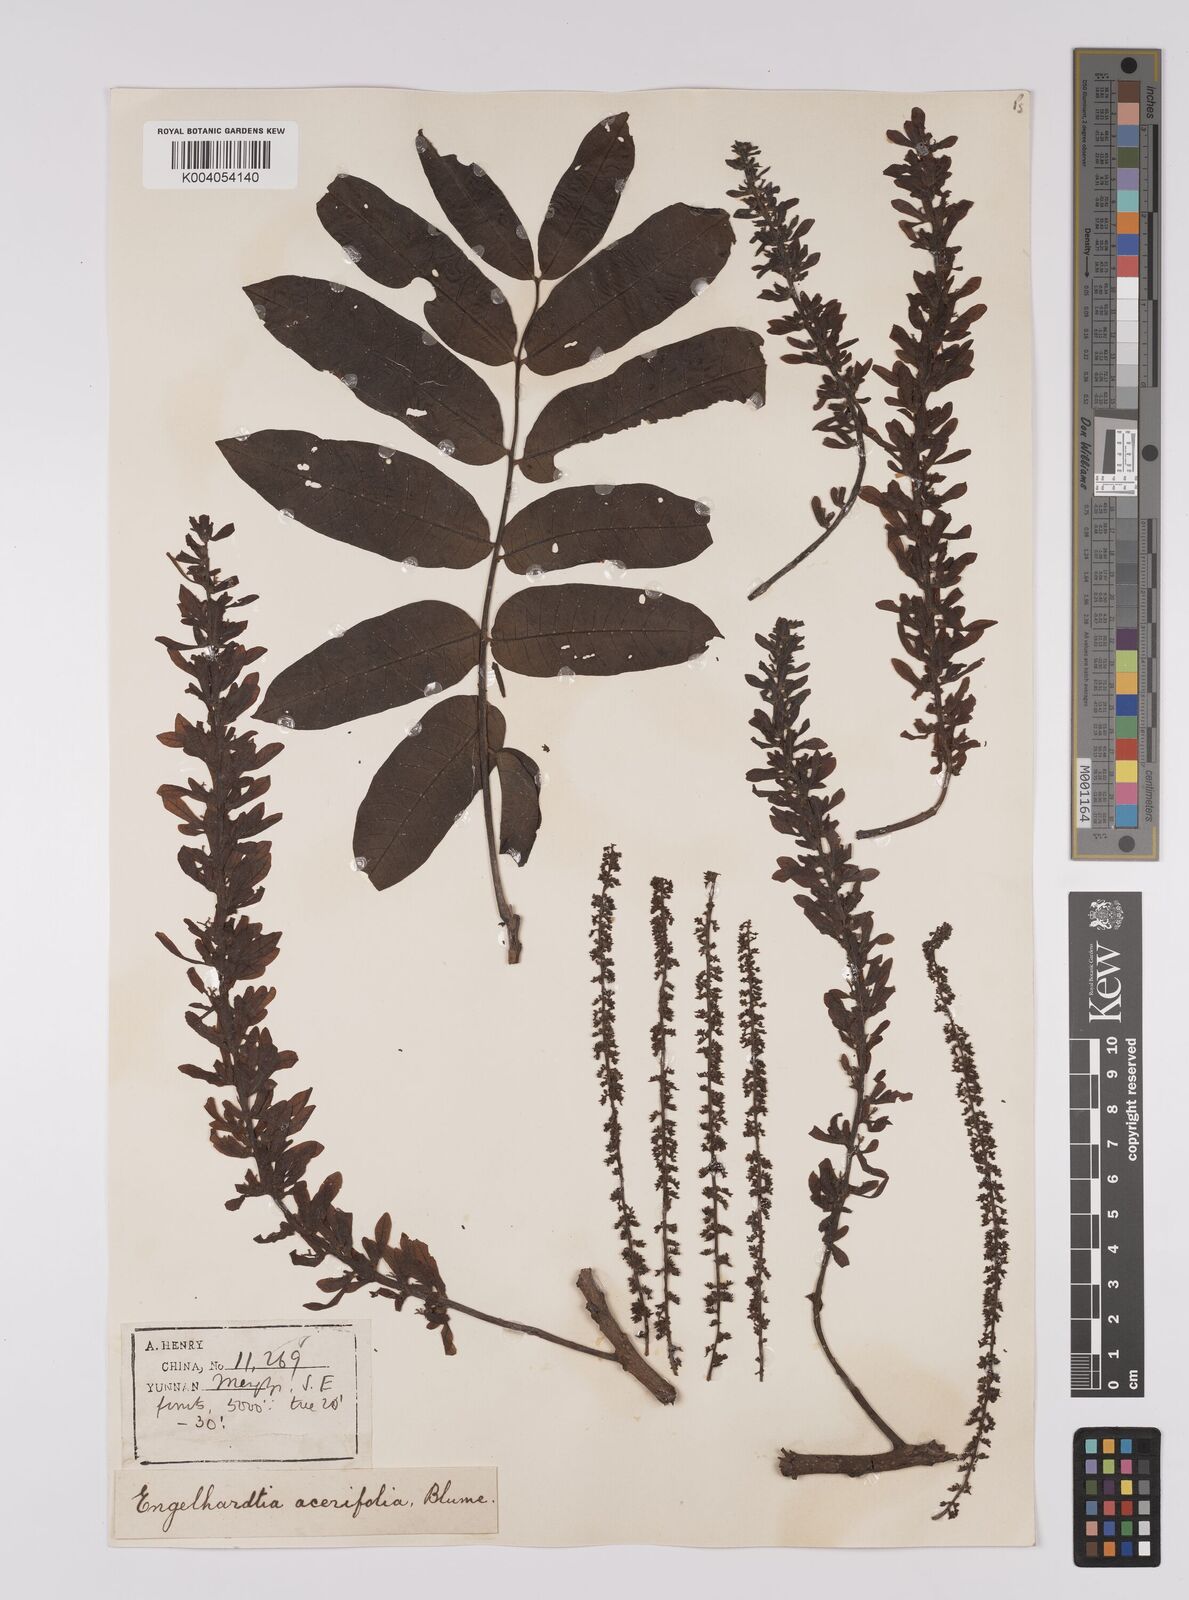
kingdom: Plantae
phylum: Tracheophyta
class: Magnoliopsida
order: Fagales
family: Juglandaceae
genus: Engelhardia
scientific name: Engelhardia spicata
